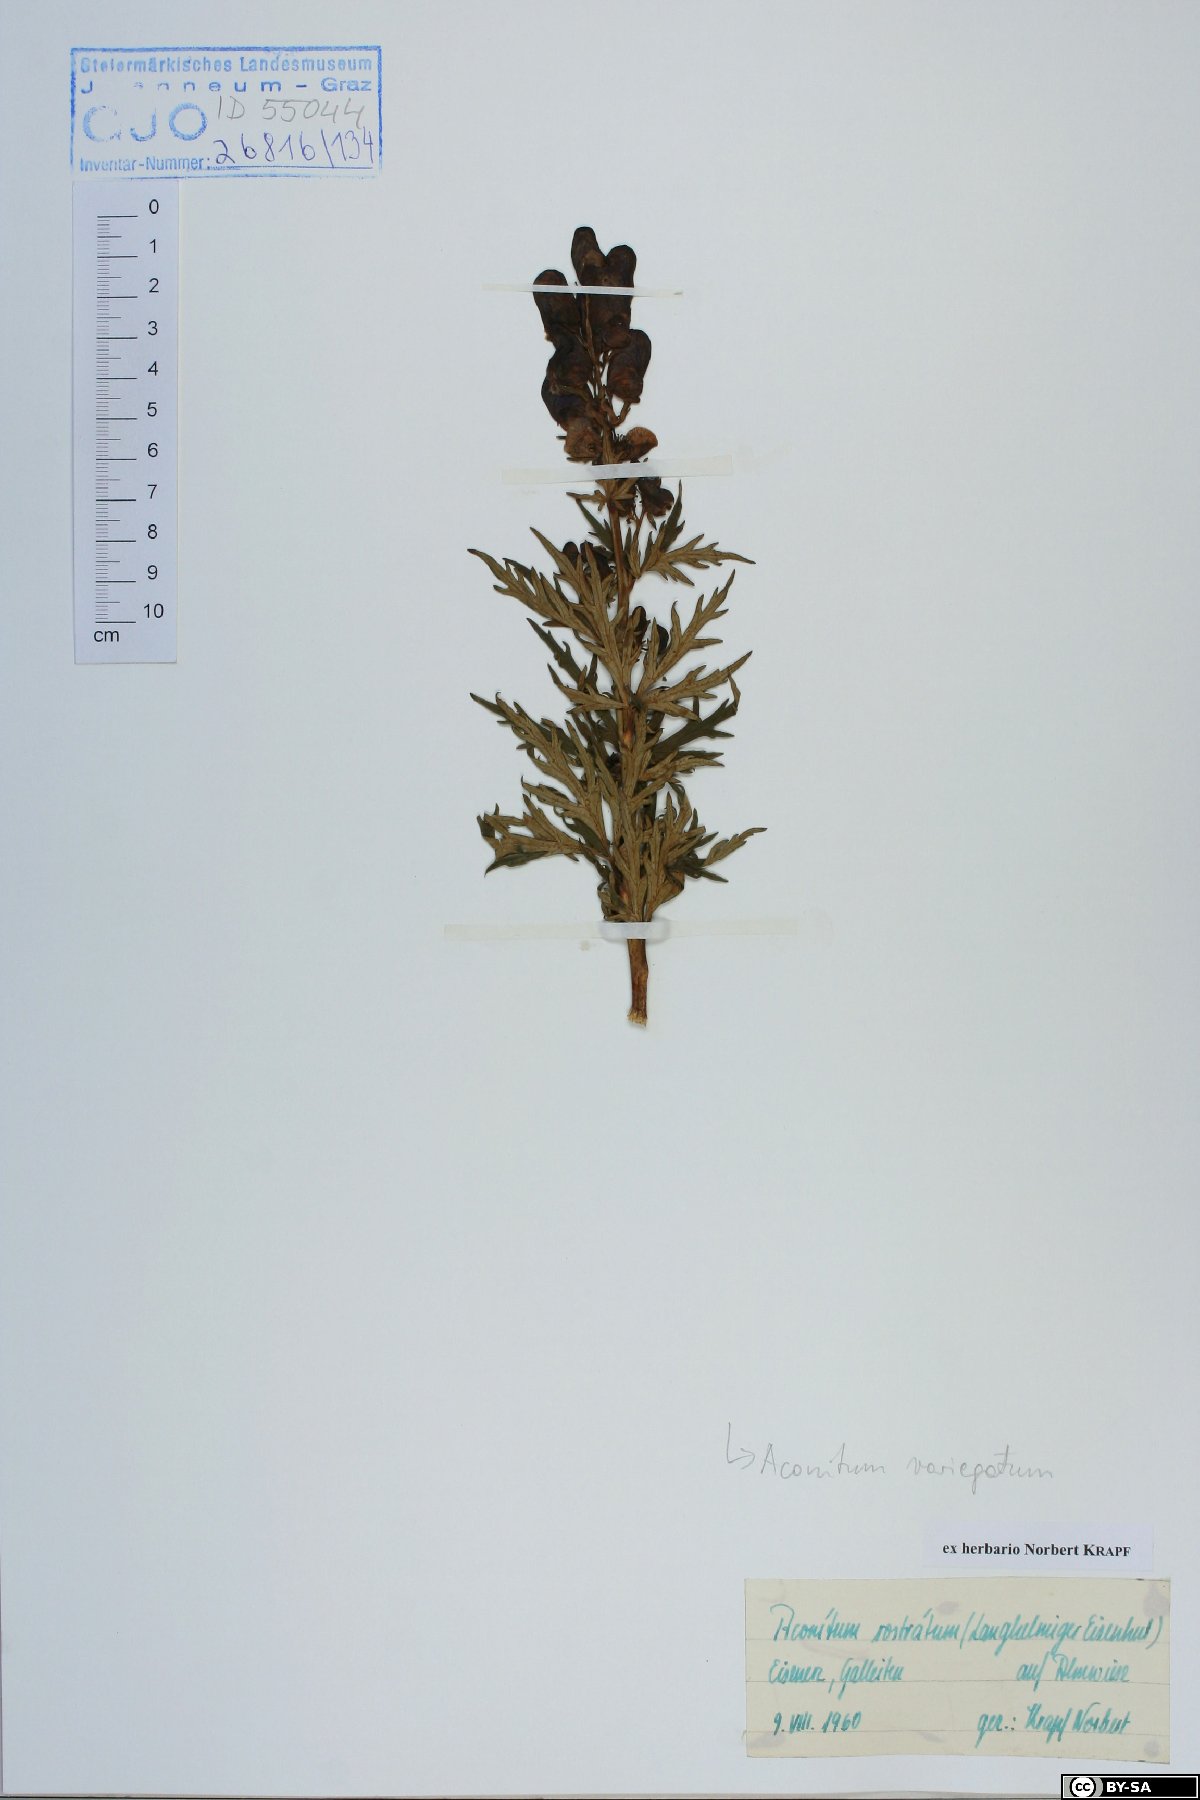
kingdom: Plantae
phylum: Tracheophyta
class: Magnoliopsida
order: Ranunculales
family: Ranunculaceae
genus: Aconitum
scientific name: Aconitum variegatum
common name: Manchurian monkshood
